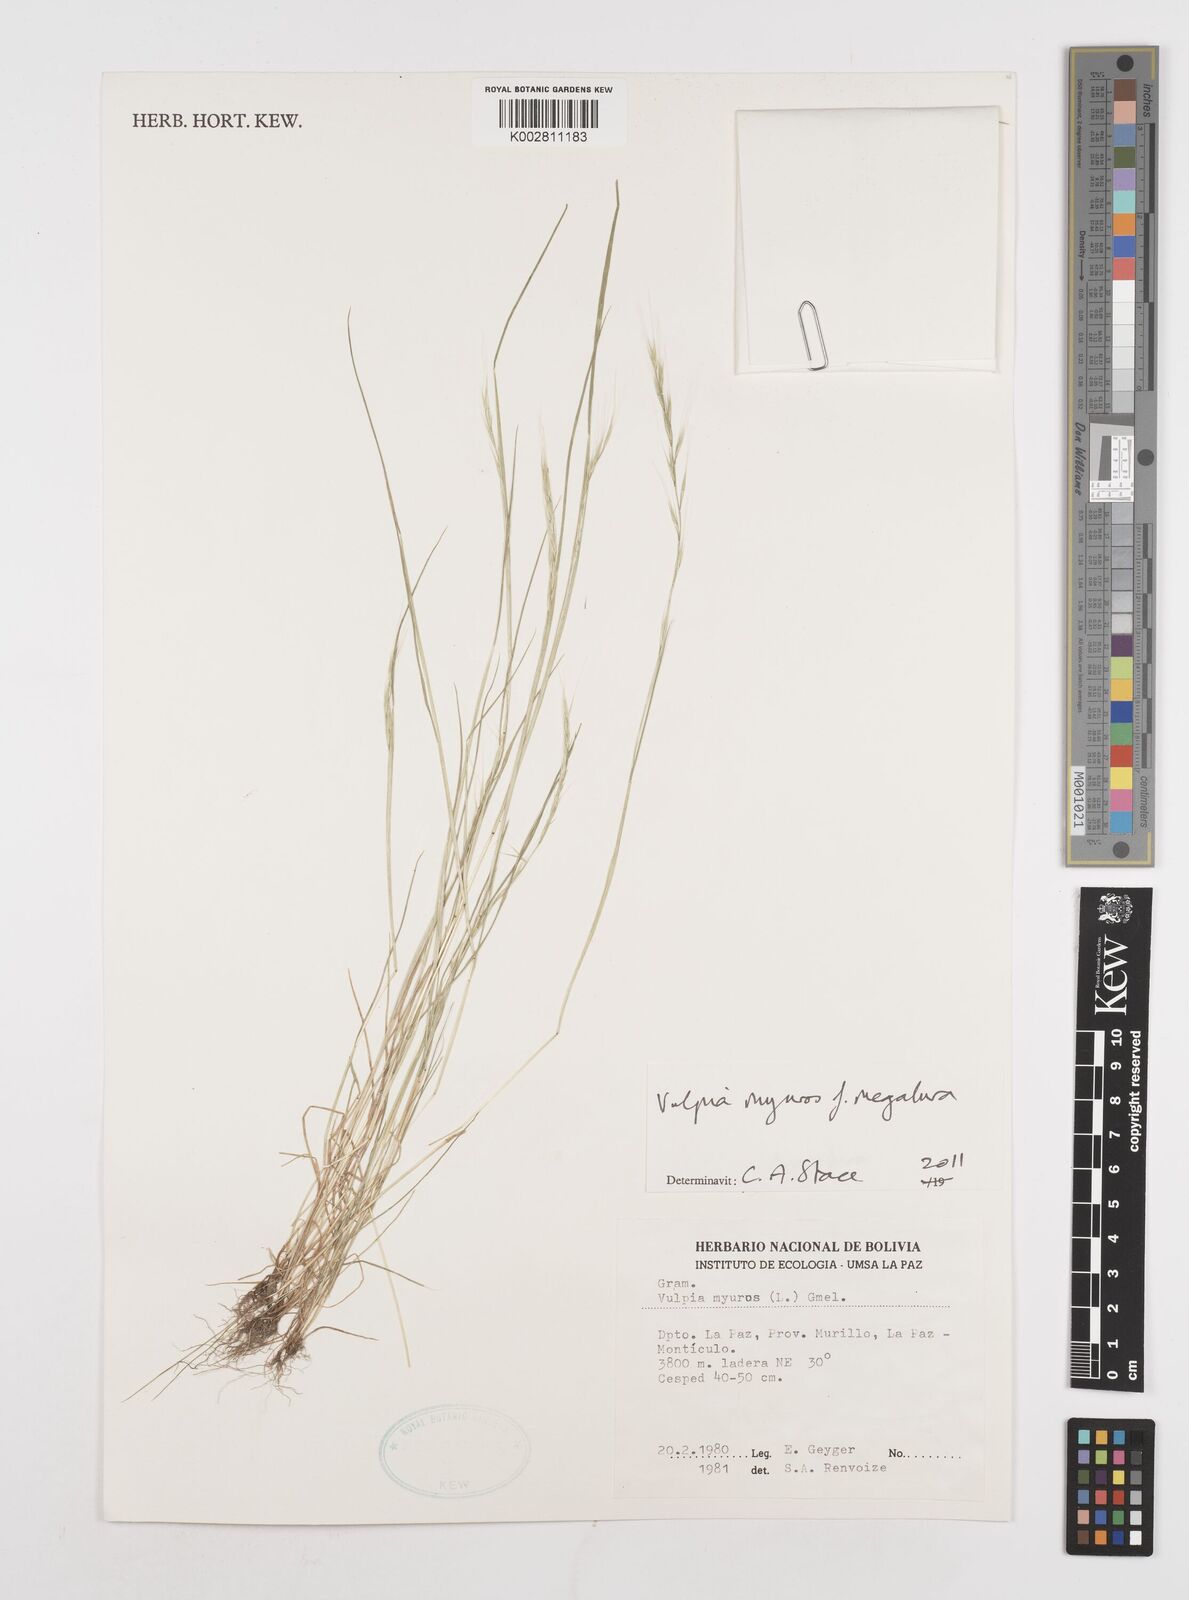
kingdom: Plantae
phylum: Tracheophyta
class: Liliopsida
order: Poales
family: Poaceae
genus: Festuca
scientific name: Festuca myuros
